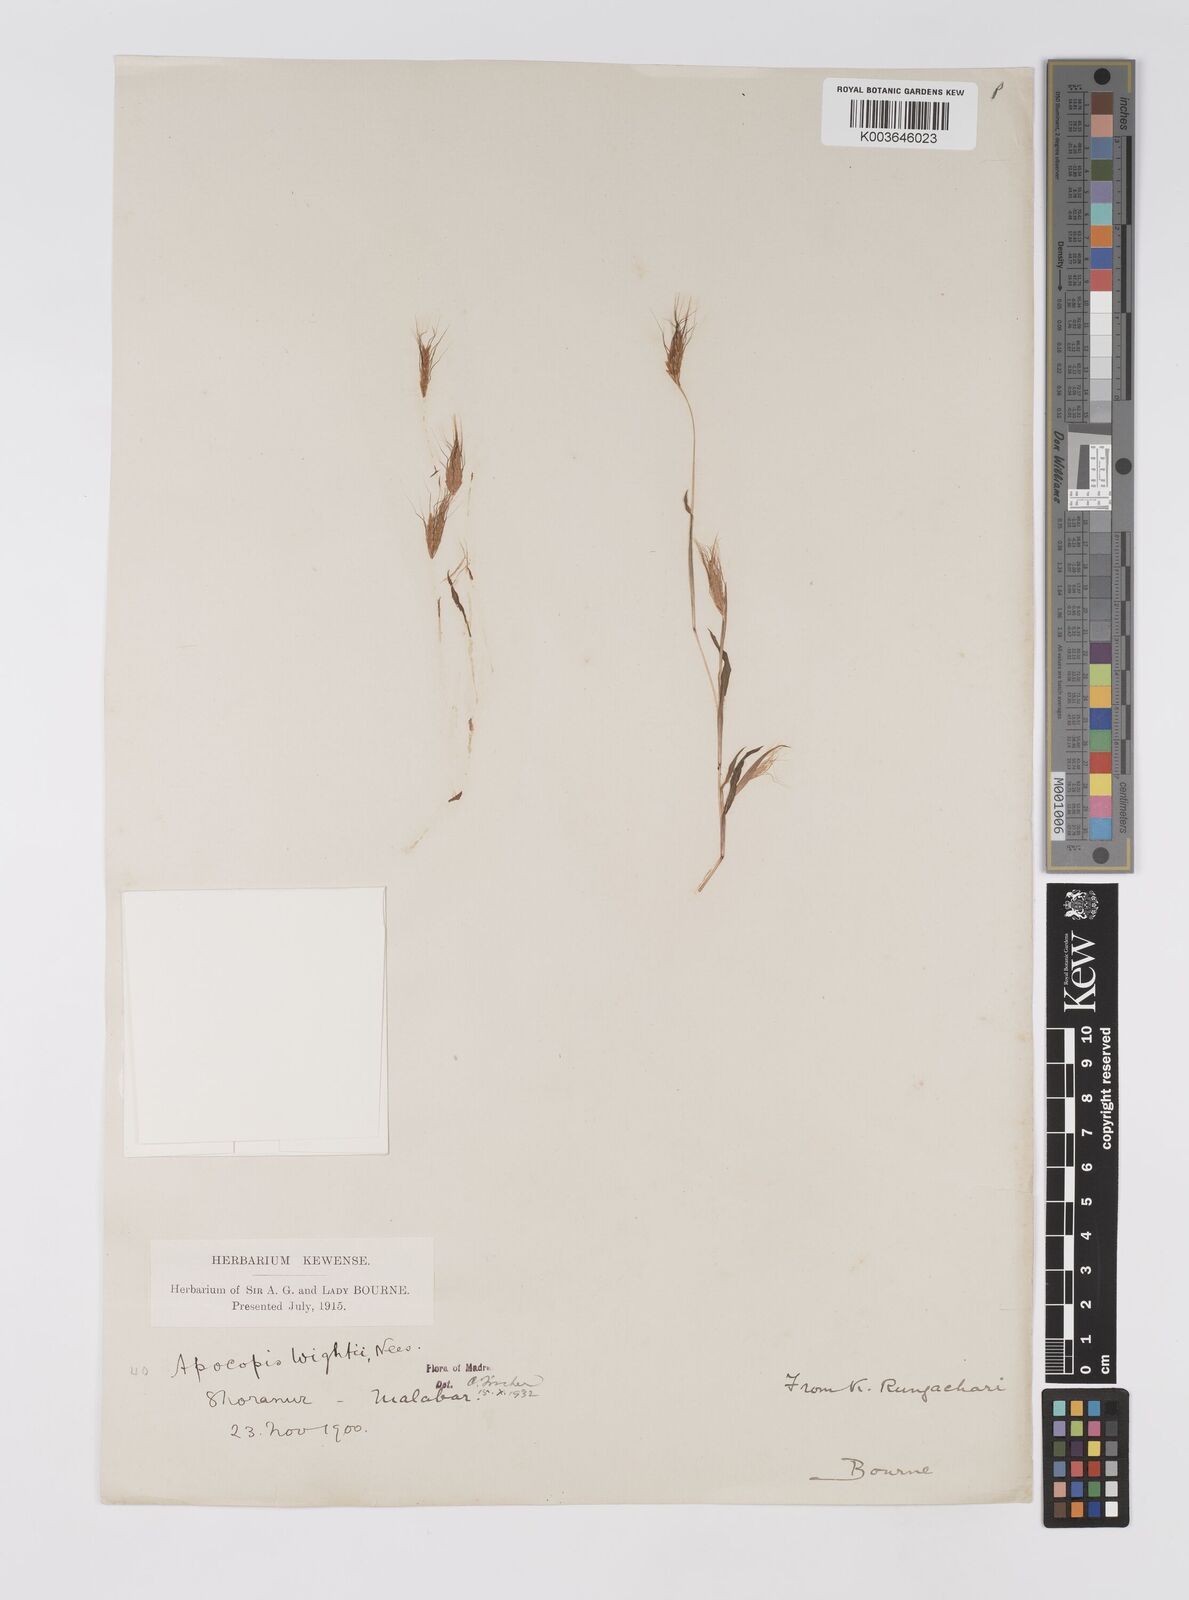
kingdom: Plantae
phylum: Tracheophyta
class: Liliopsida
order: Poales
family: Poaceae
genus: Apocopis
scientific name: Apocopis mangalorensis
